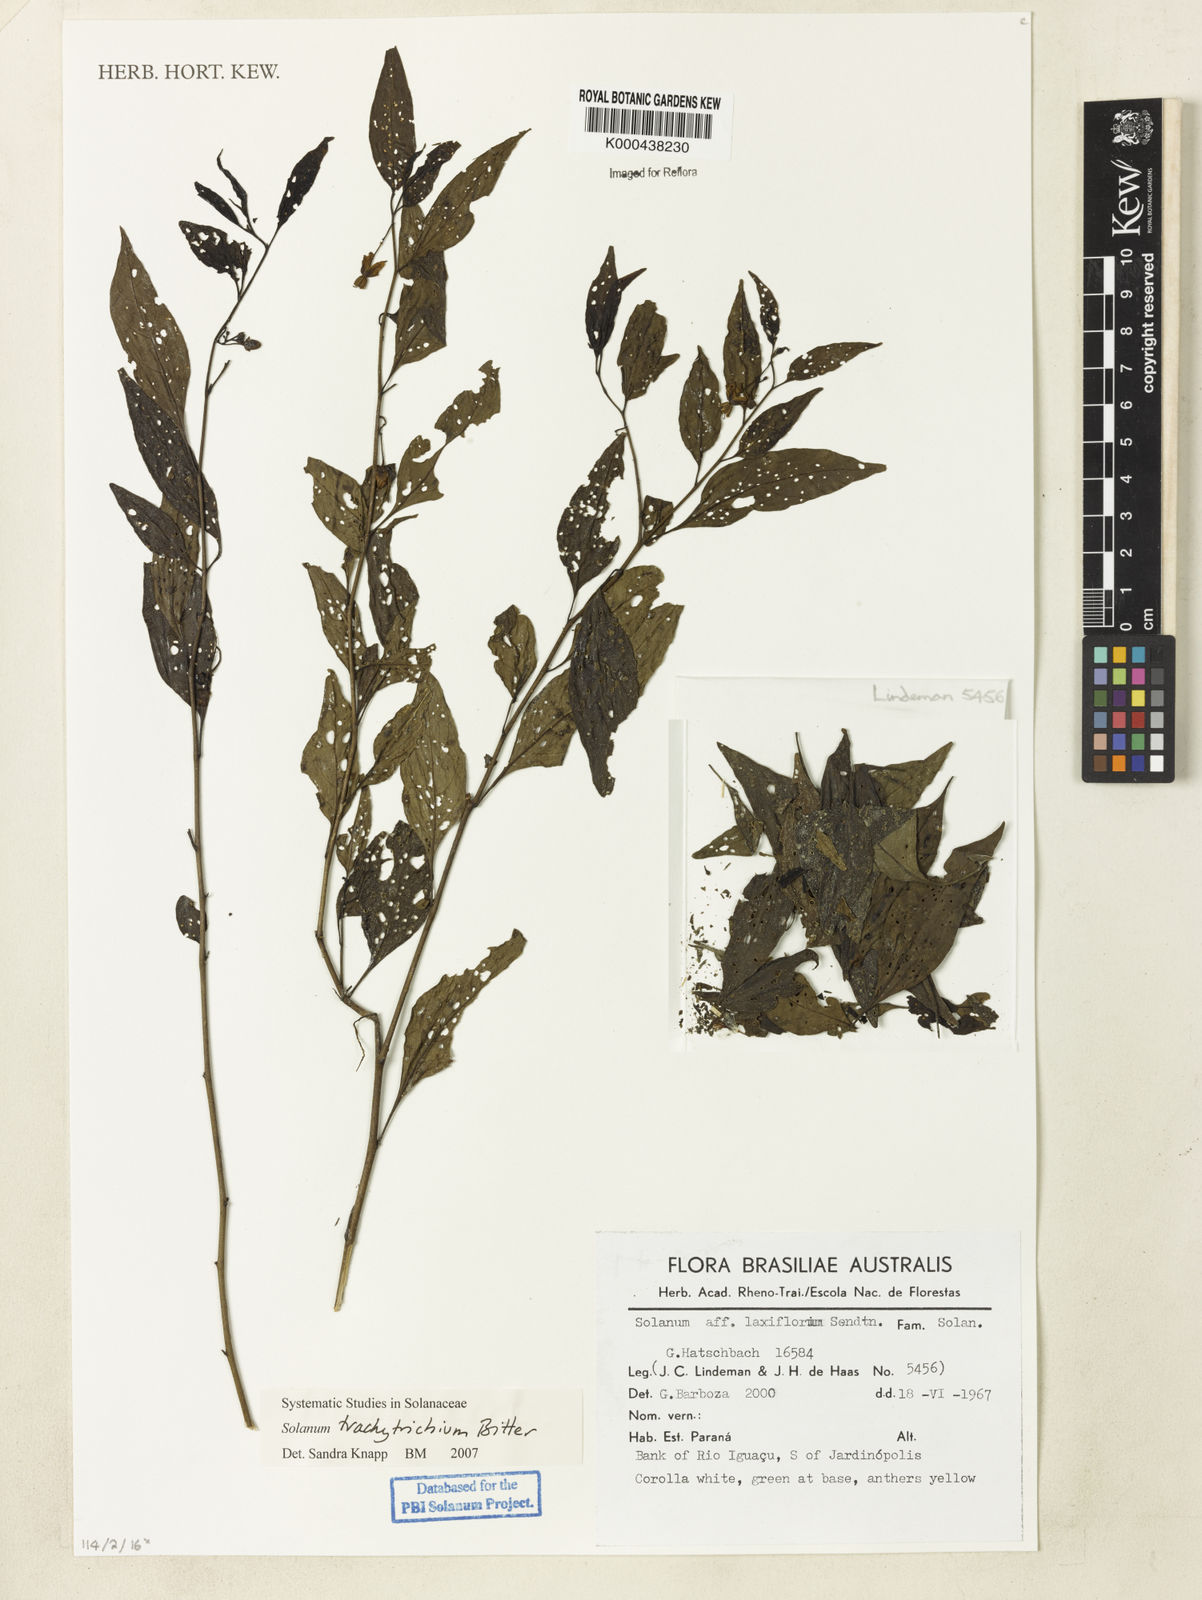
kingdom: Plantae
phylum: Tracheophyta
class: Magnoliopsida
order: Solanales
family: Solanaceae
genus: Solanum
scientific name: Solanum trachytrichium
